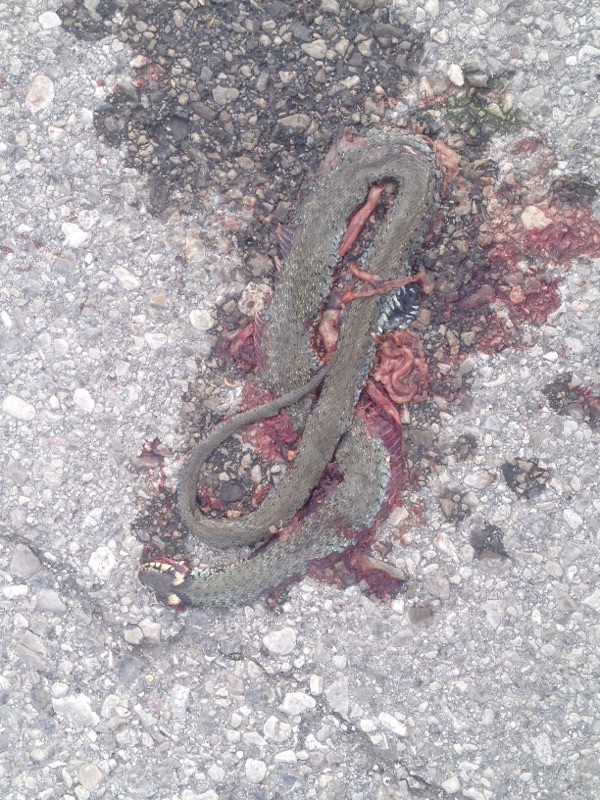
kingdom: Animalia
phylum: Chordata
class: Squamata
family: Colubridae
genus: Natrix
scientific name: Natrix natrix
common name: Grass snake
